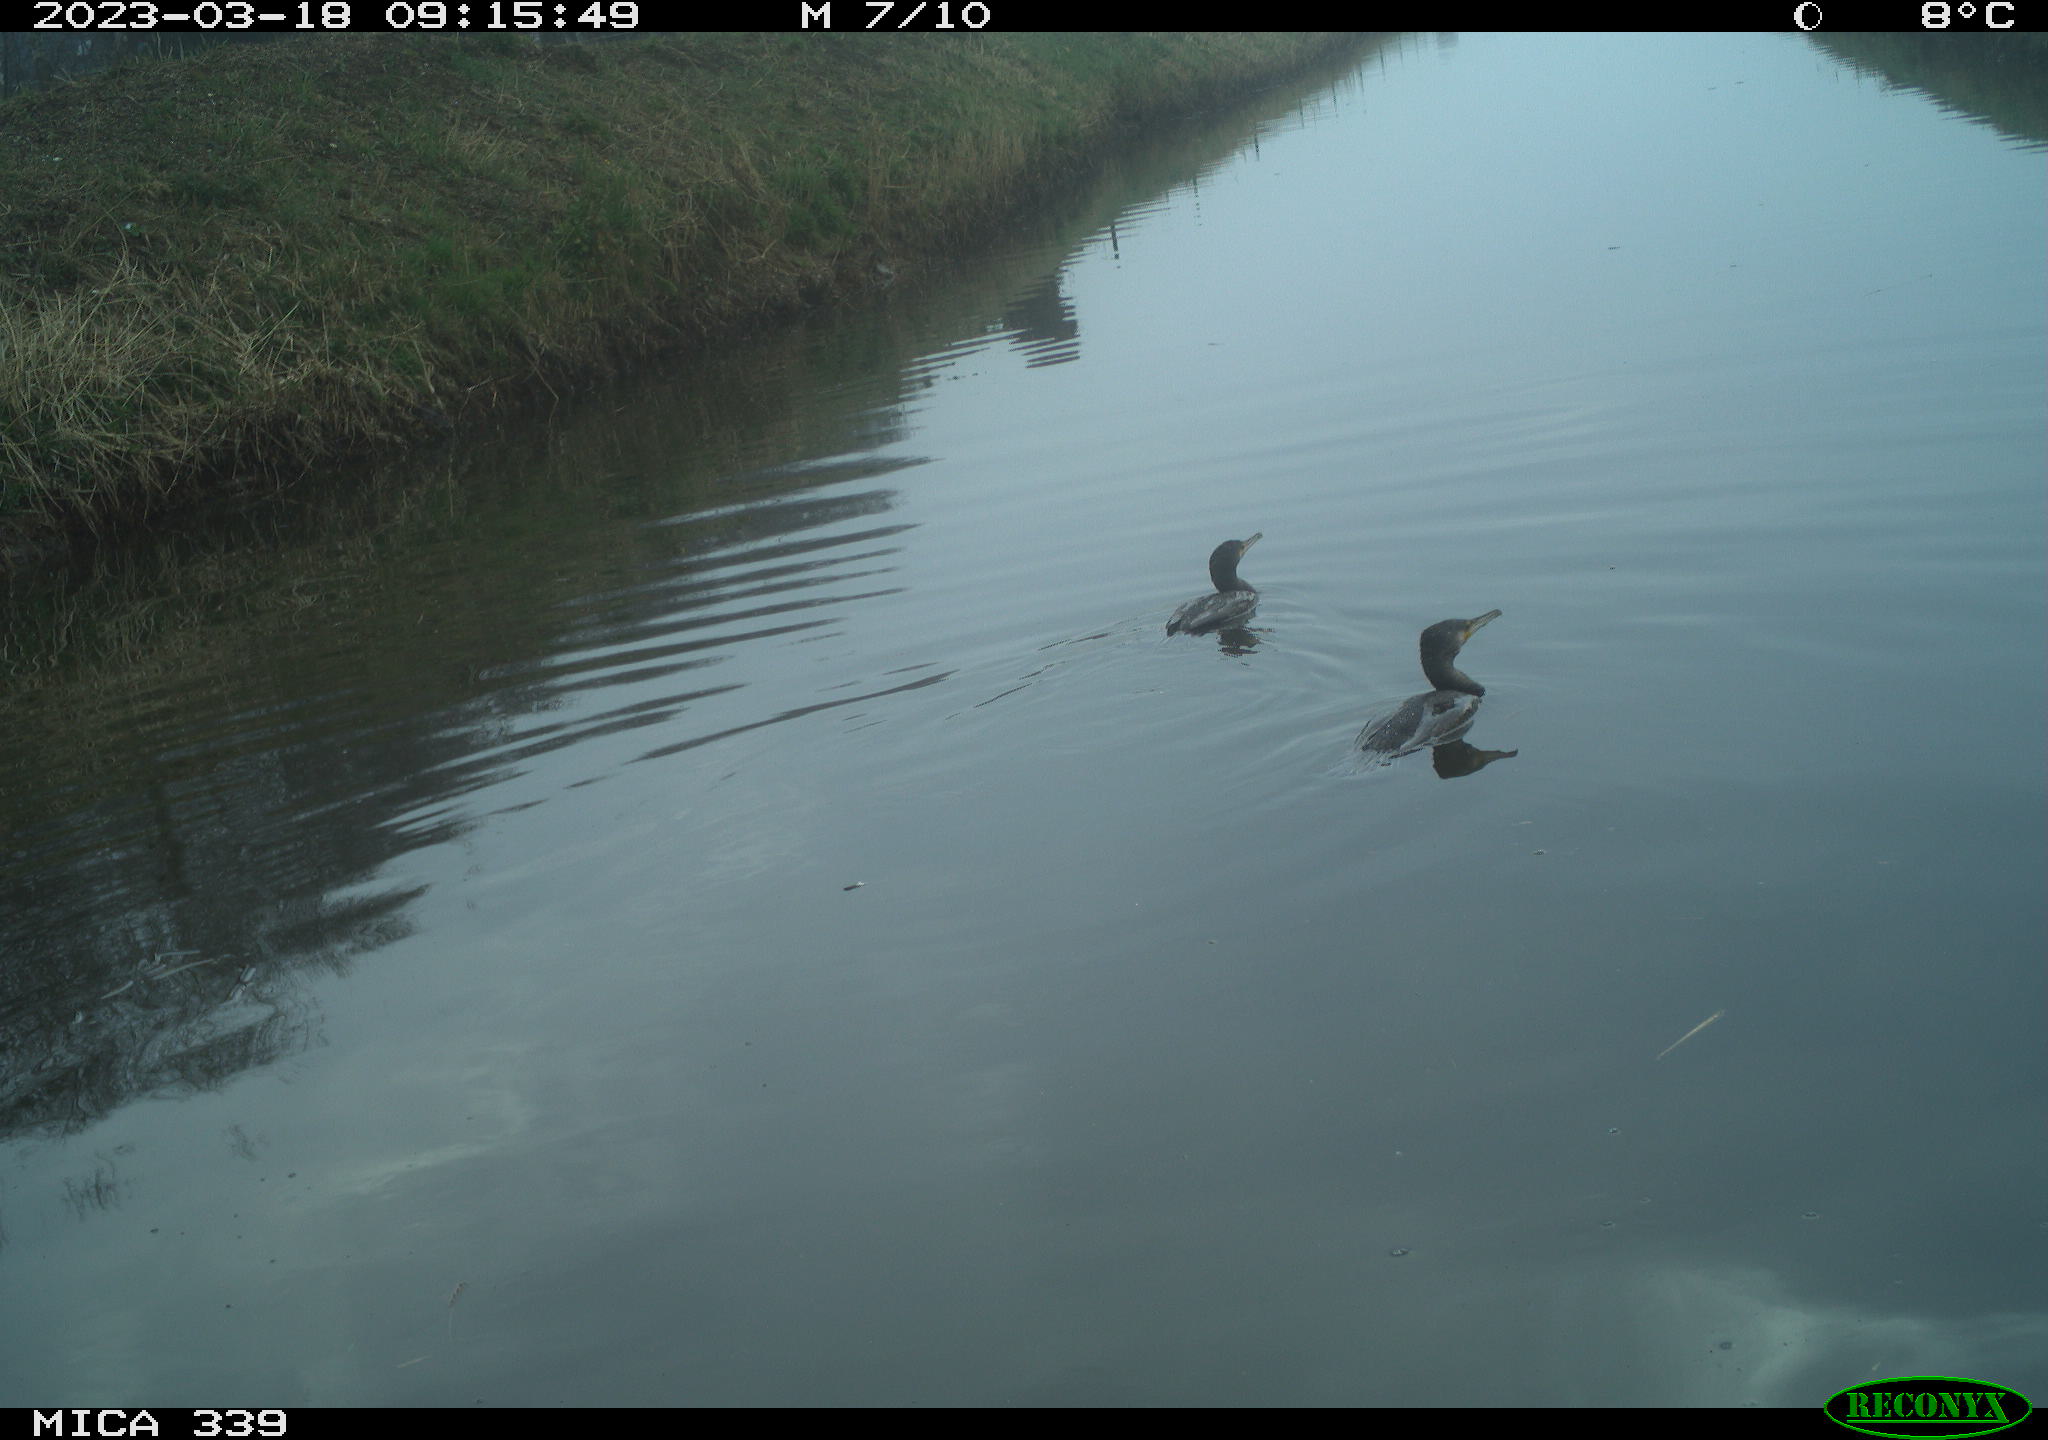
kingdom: Animalia
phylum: Chordata
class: Aves
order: Anseriformes
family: Anatidae
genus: Anas
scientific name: Anas
